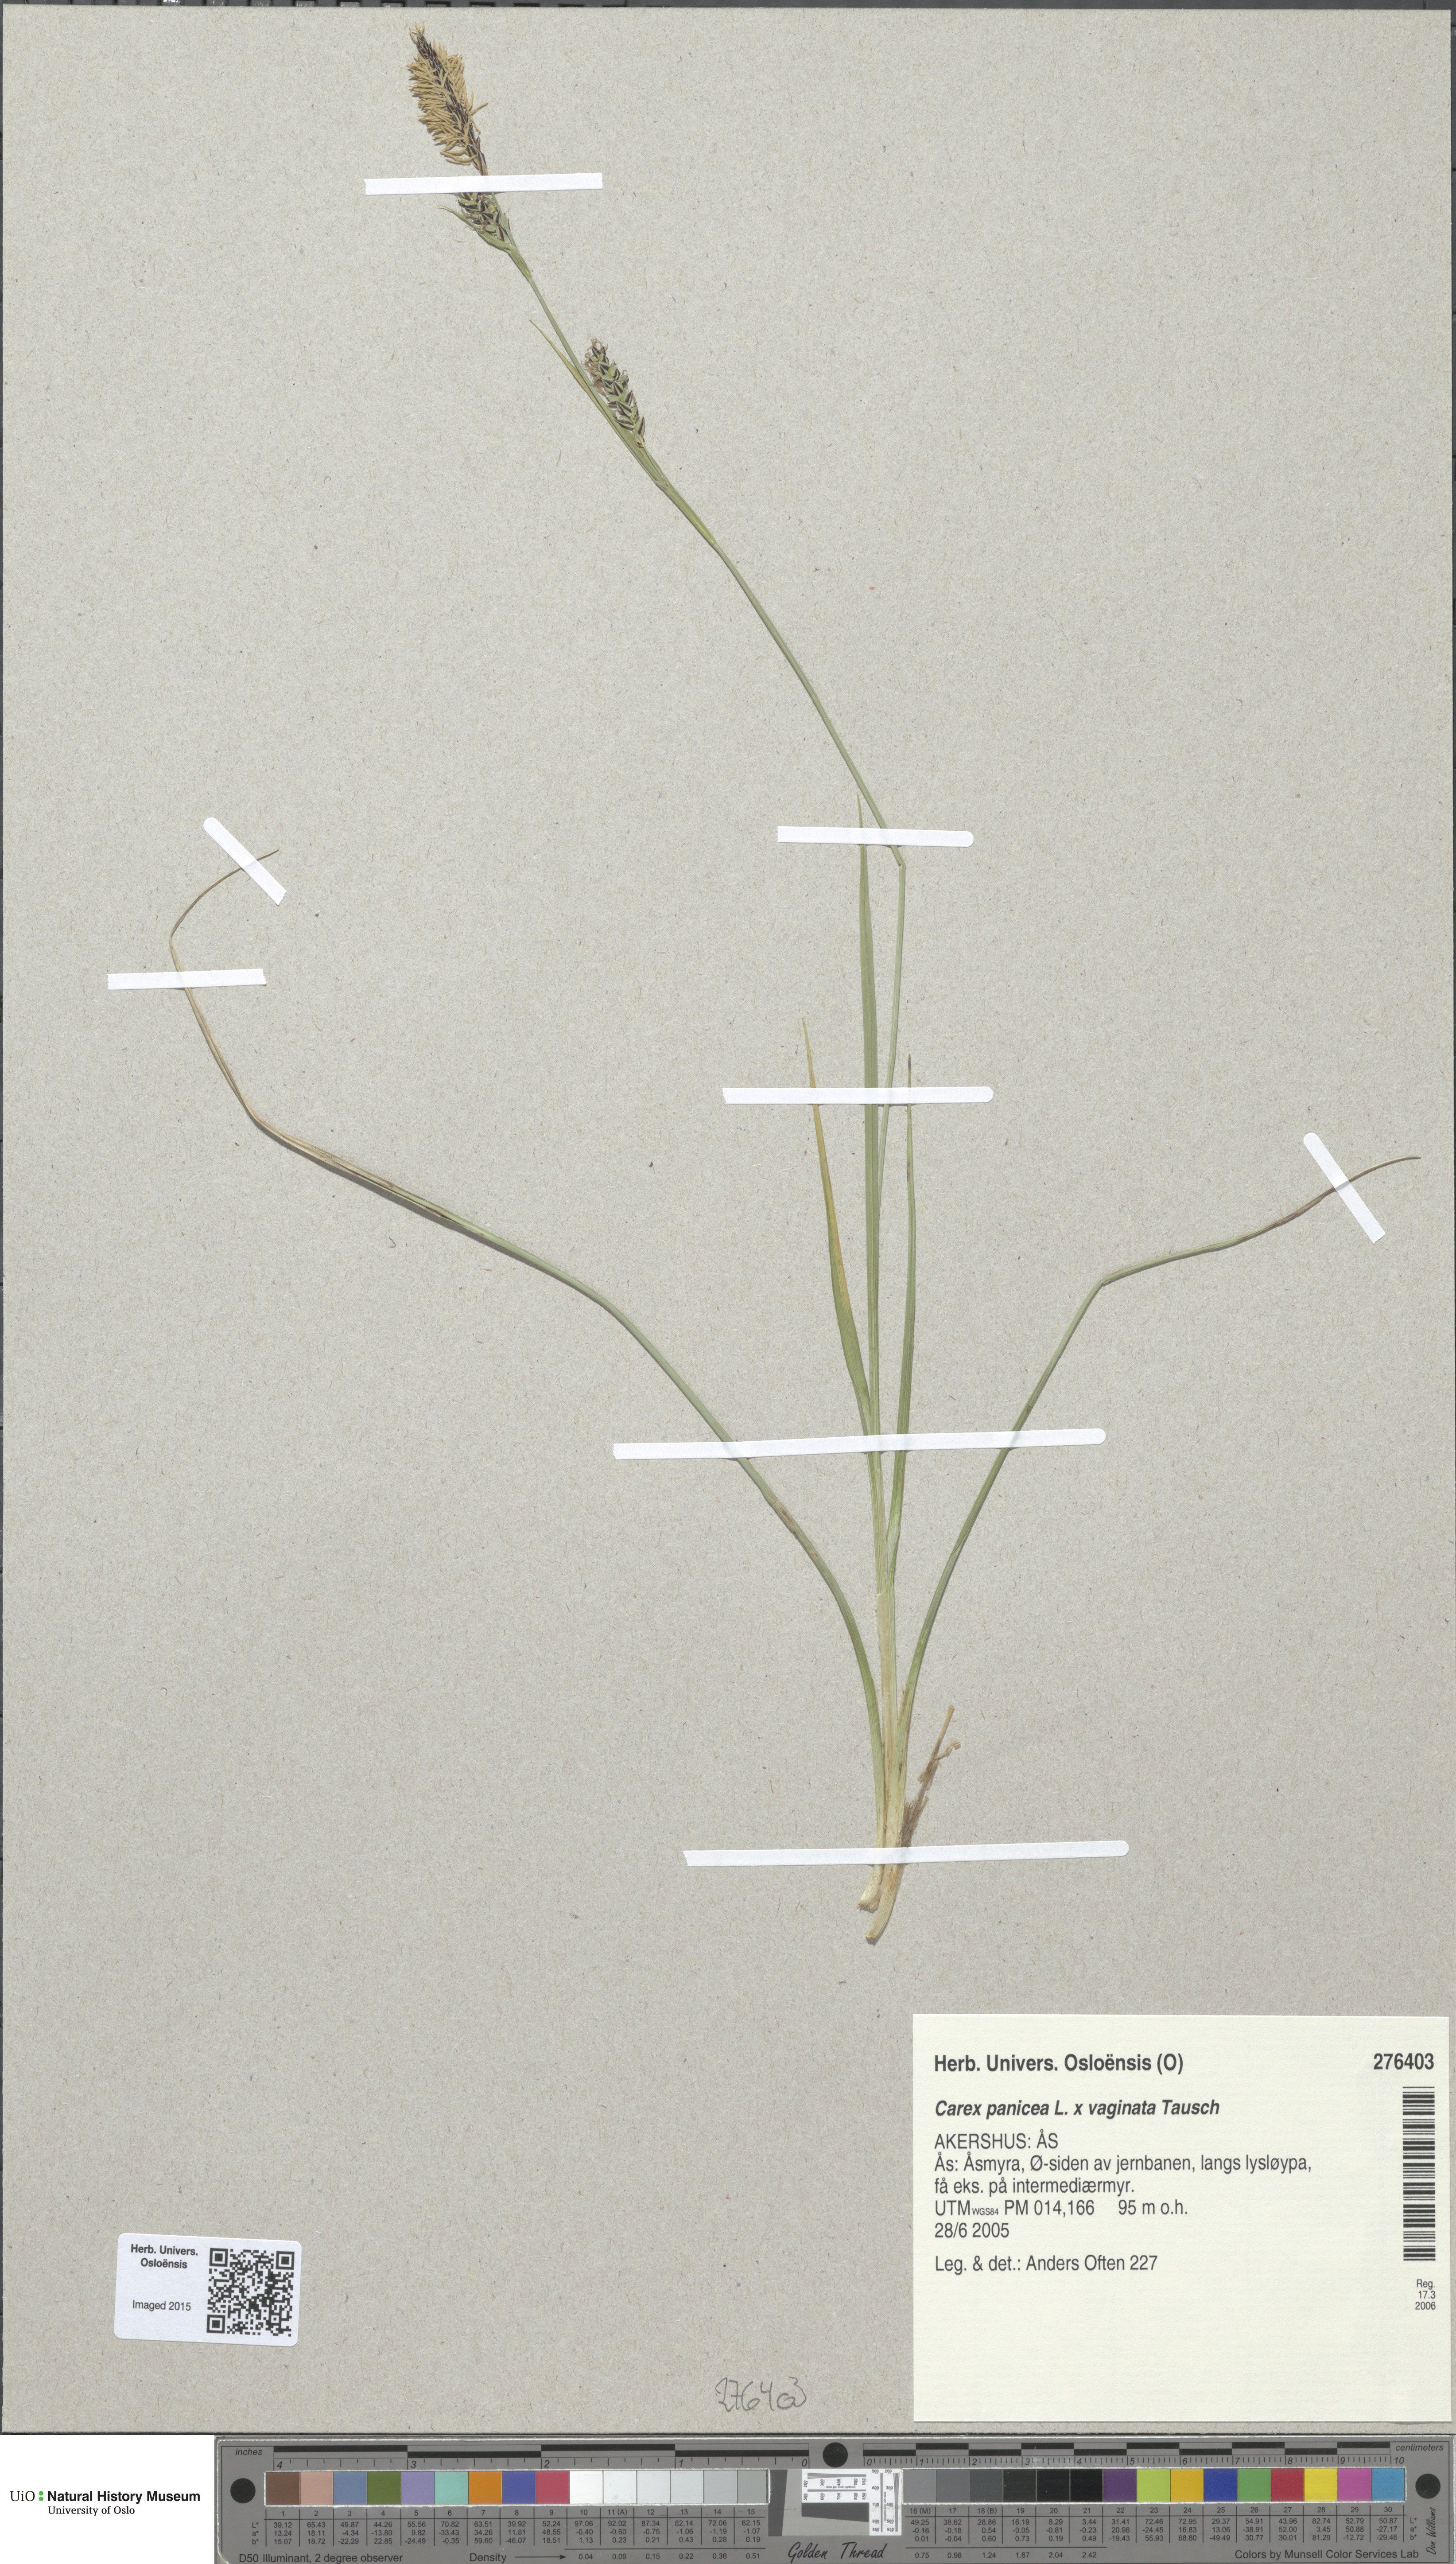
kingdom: Plantae
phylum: Tracheophyta
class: Liliopsida
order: Poales
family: Cyperaceae
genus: Carex
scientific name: Carex
